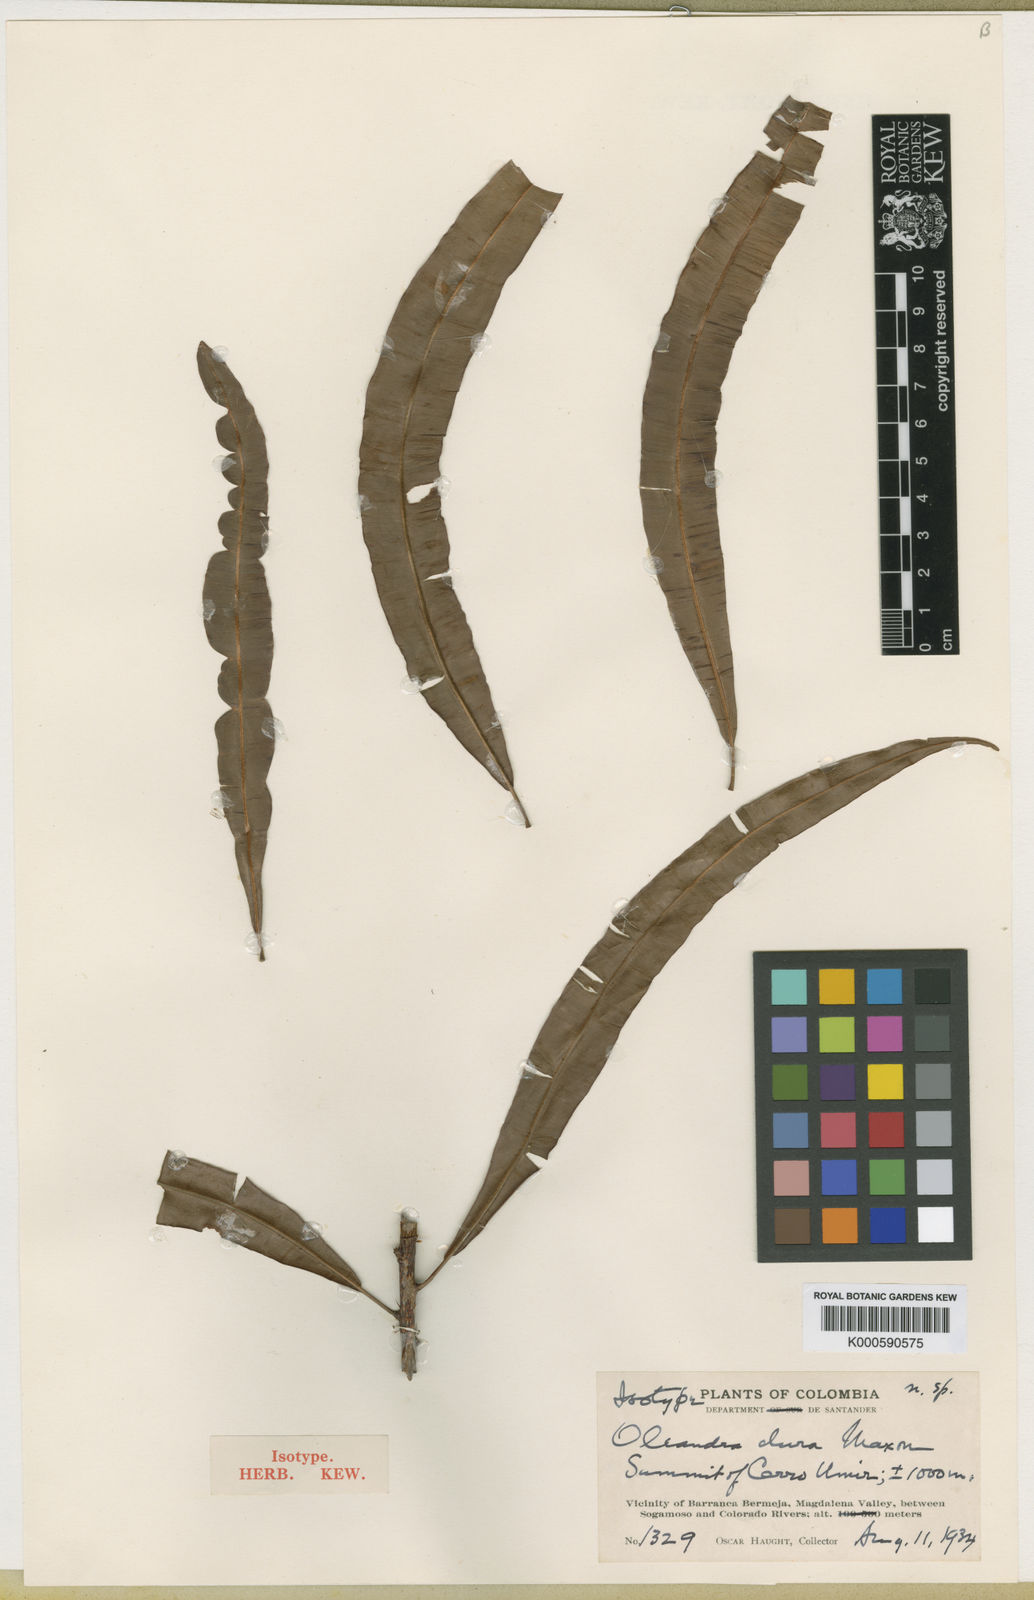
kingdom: Plantae
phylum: Tracheophyta
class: Polypodiopsida
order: Polypodiales
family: Oleandraceae
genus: Oleandra
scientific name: Oleandra lehmannii
